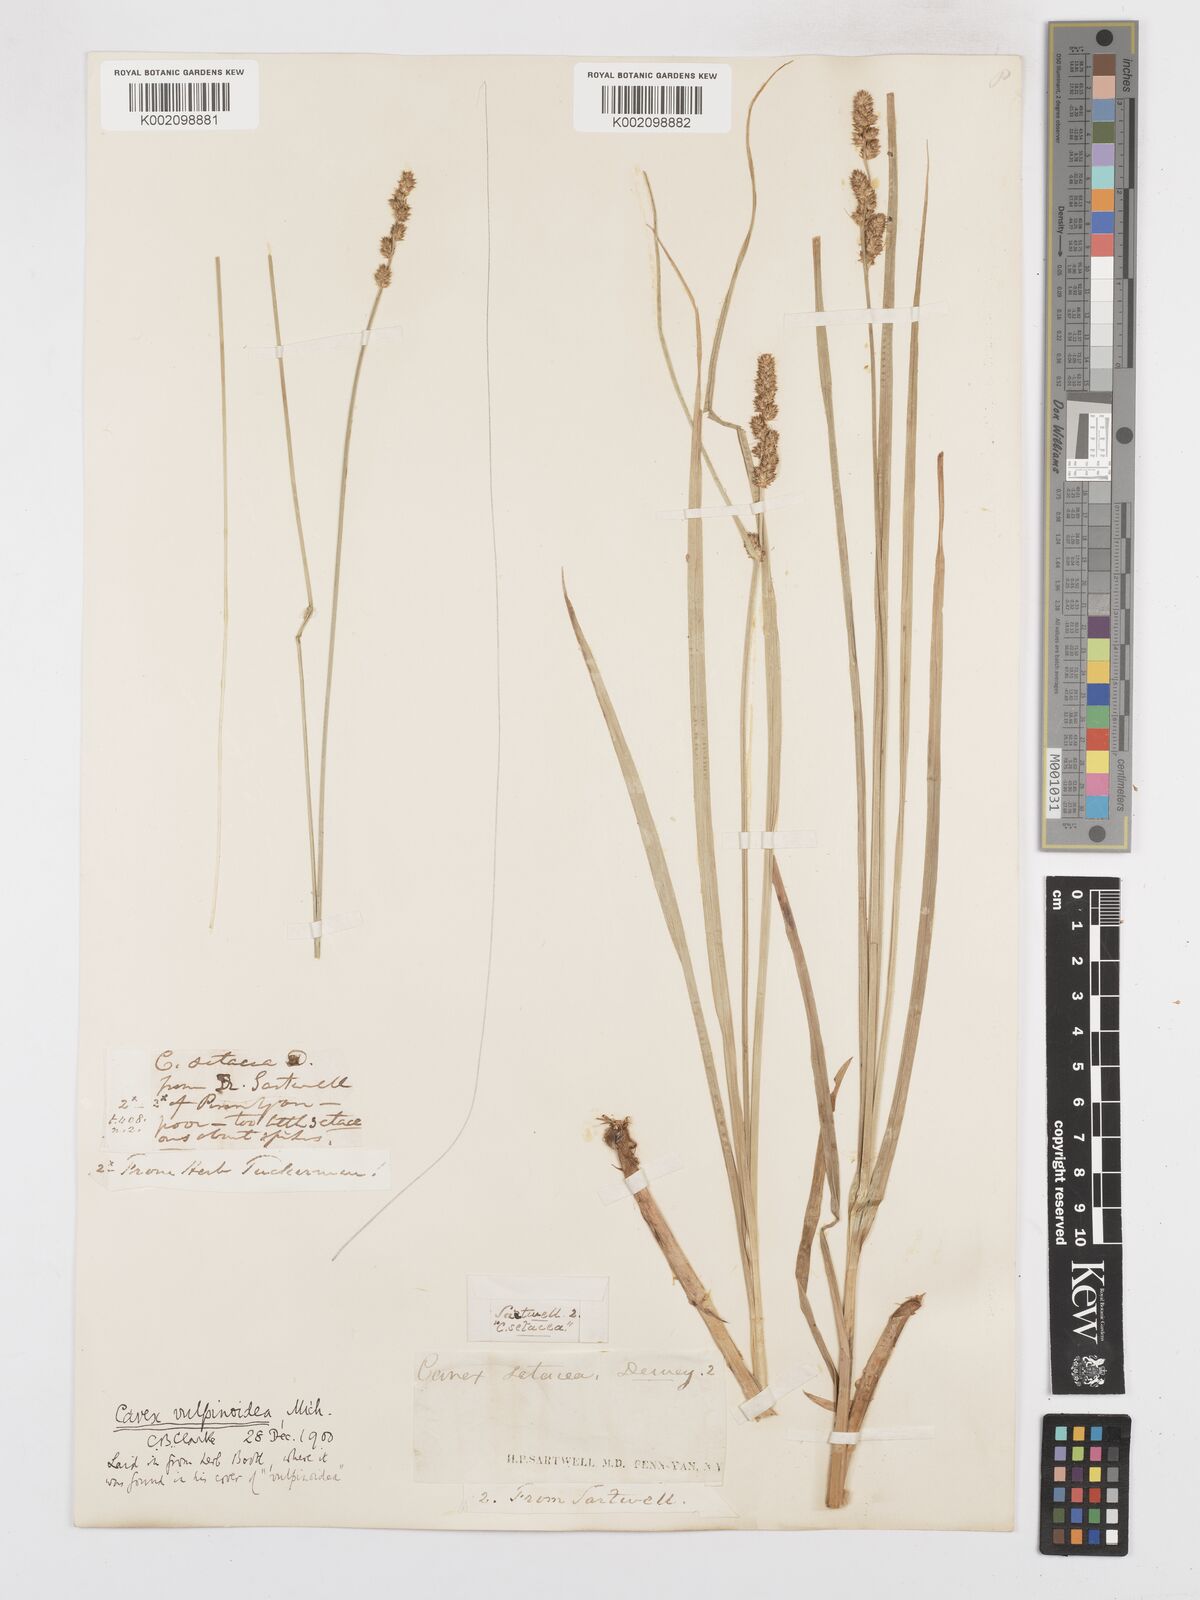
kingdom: Plantae
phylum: Tracheophyta
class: Liliopsida
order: Poales
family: Cyperaceae
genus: Carex
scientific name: Carex vulpinoidea
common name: American fox-sedge
